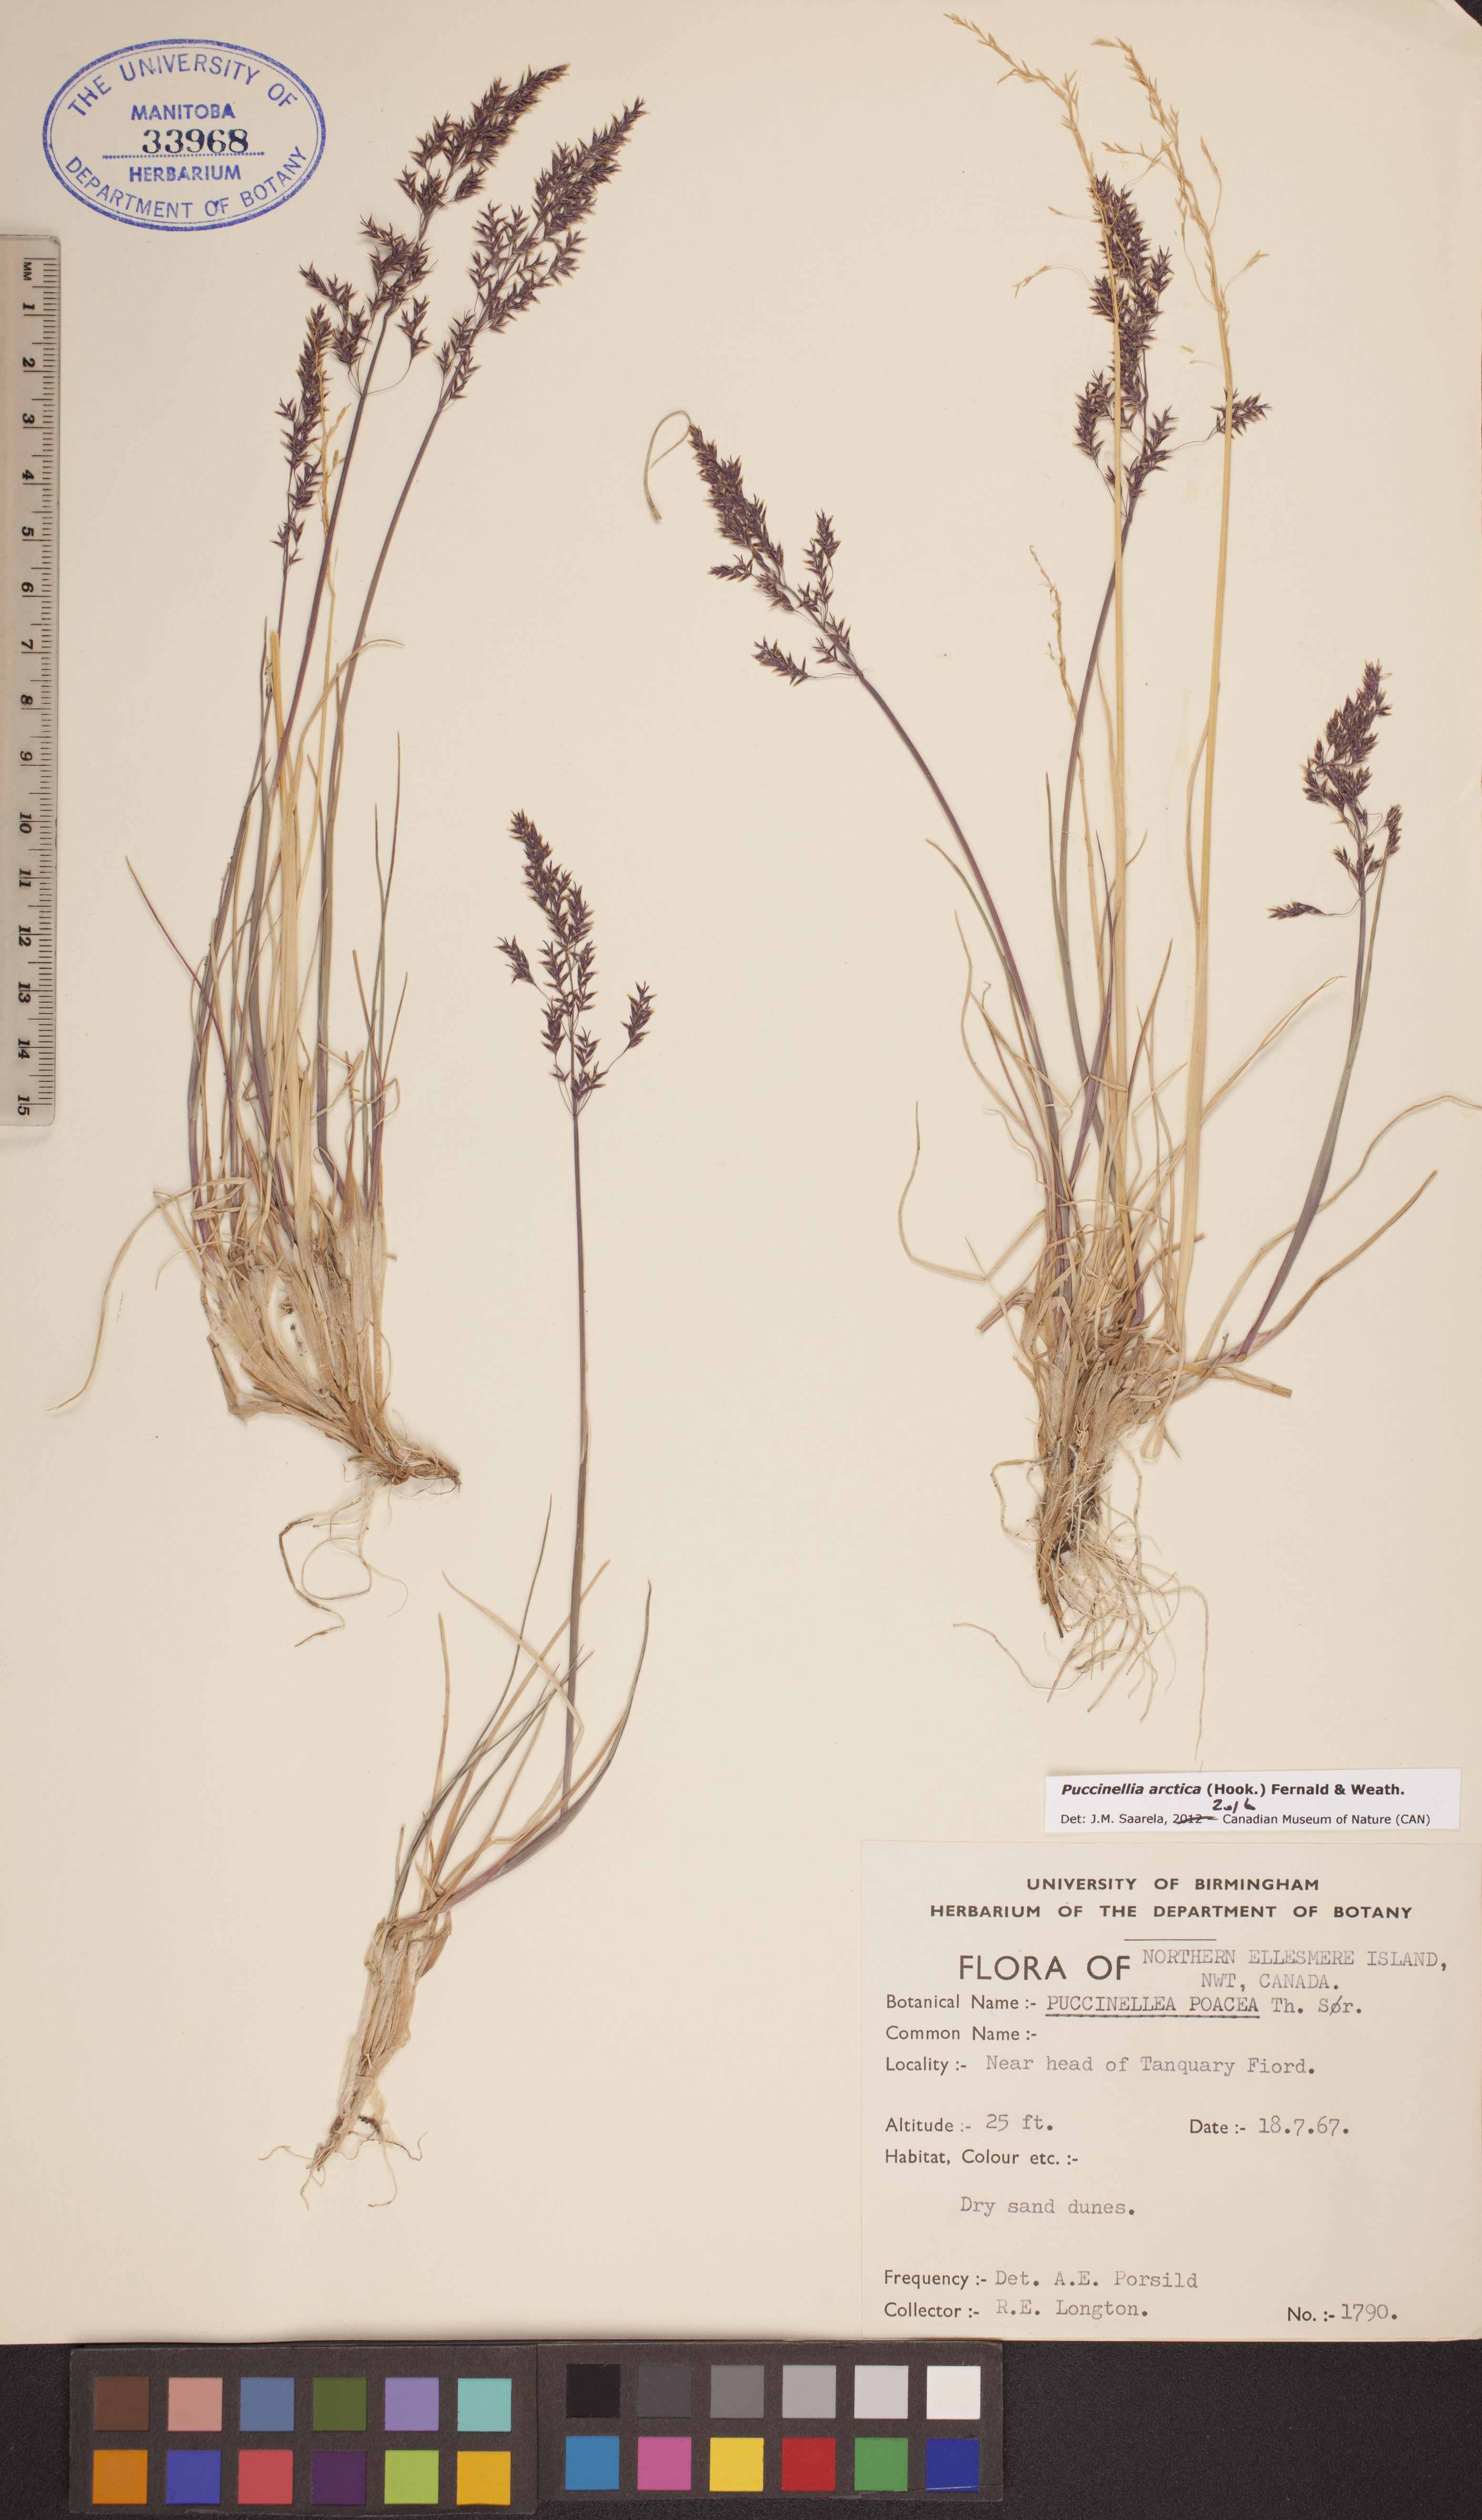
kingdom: Plantae
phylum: Tracheophyta
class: Liliopsida
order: Poales
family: Poaceae
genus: Puccinellia
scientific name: Puccinellia arctica
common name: Arctic alkali grass
